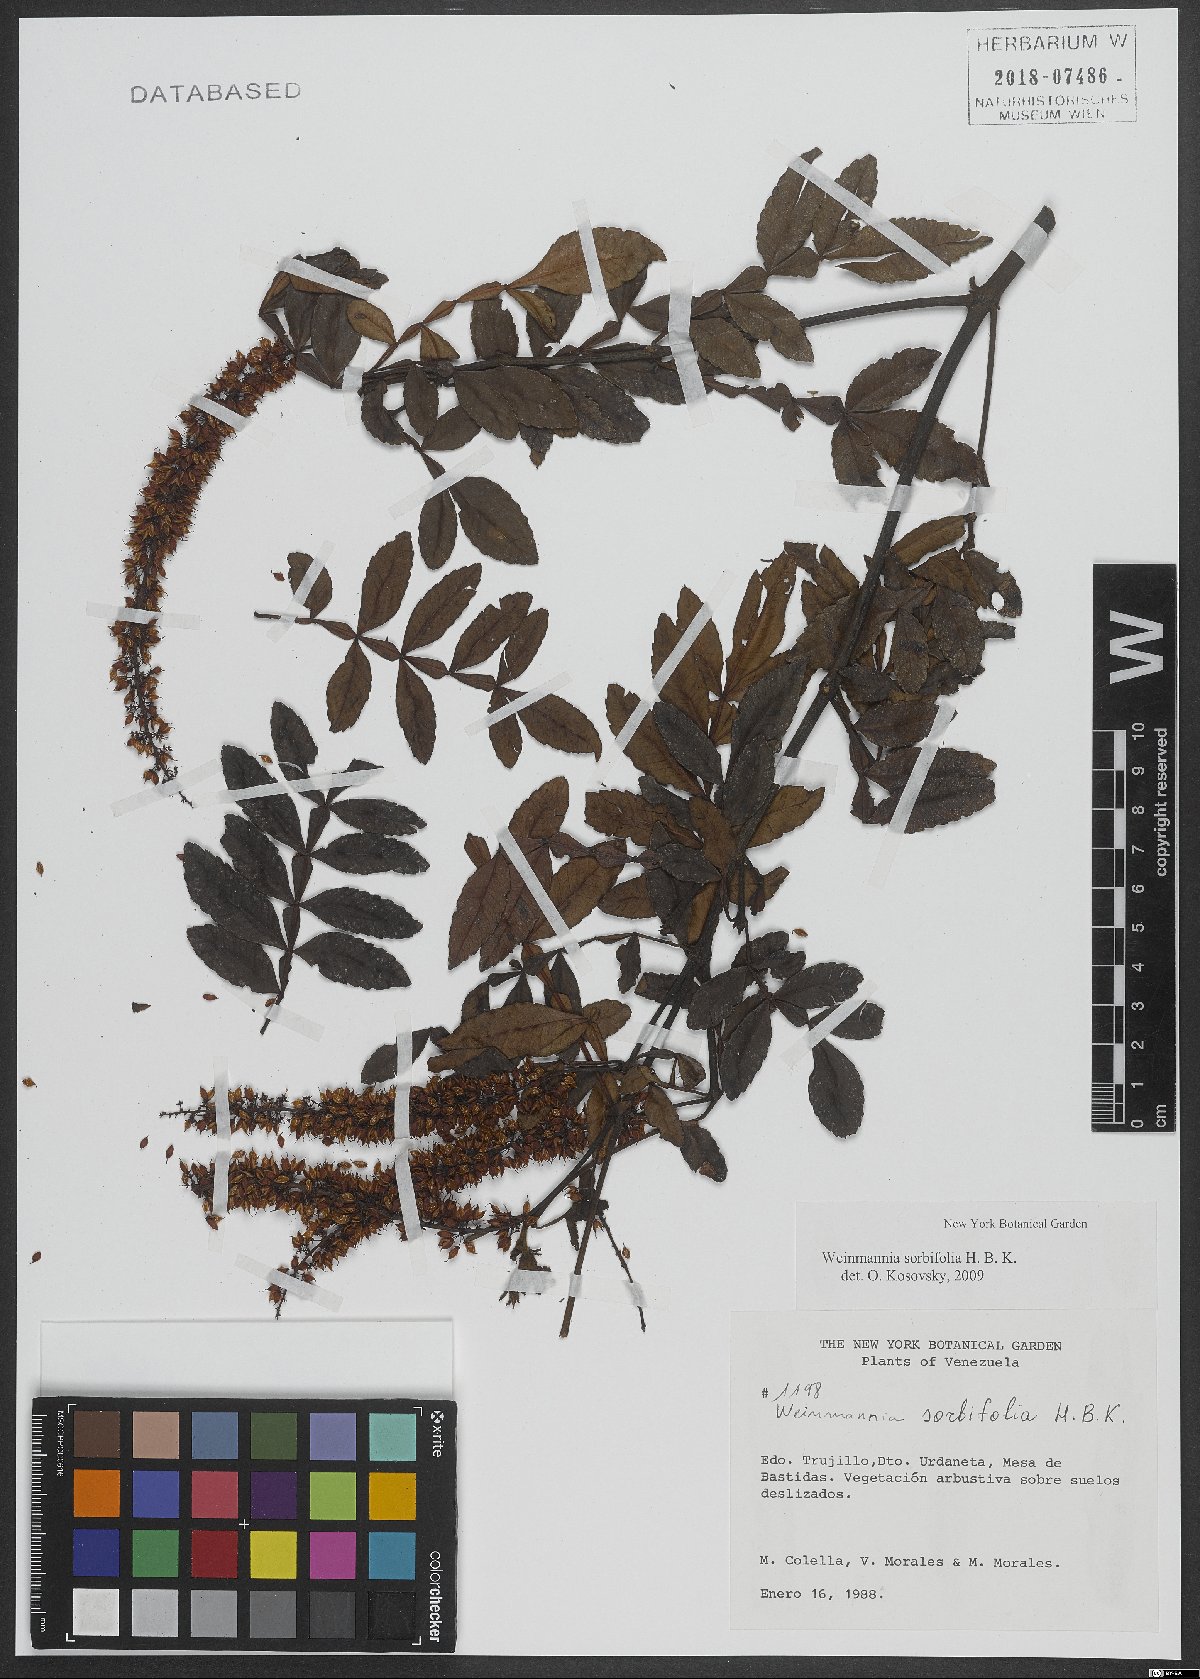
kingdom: Plantae
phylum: Tracheophyta
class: Magnoliopsida
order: Oxalidales
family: Cunoniaceae
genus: Weinmannia
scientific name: Weinmannia sorbifolia
